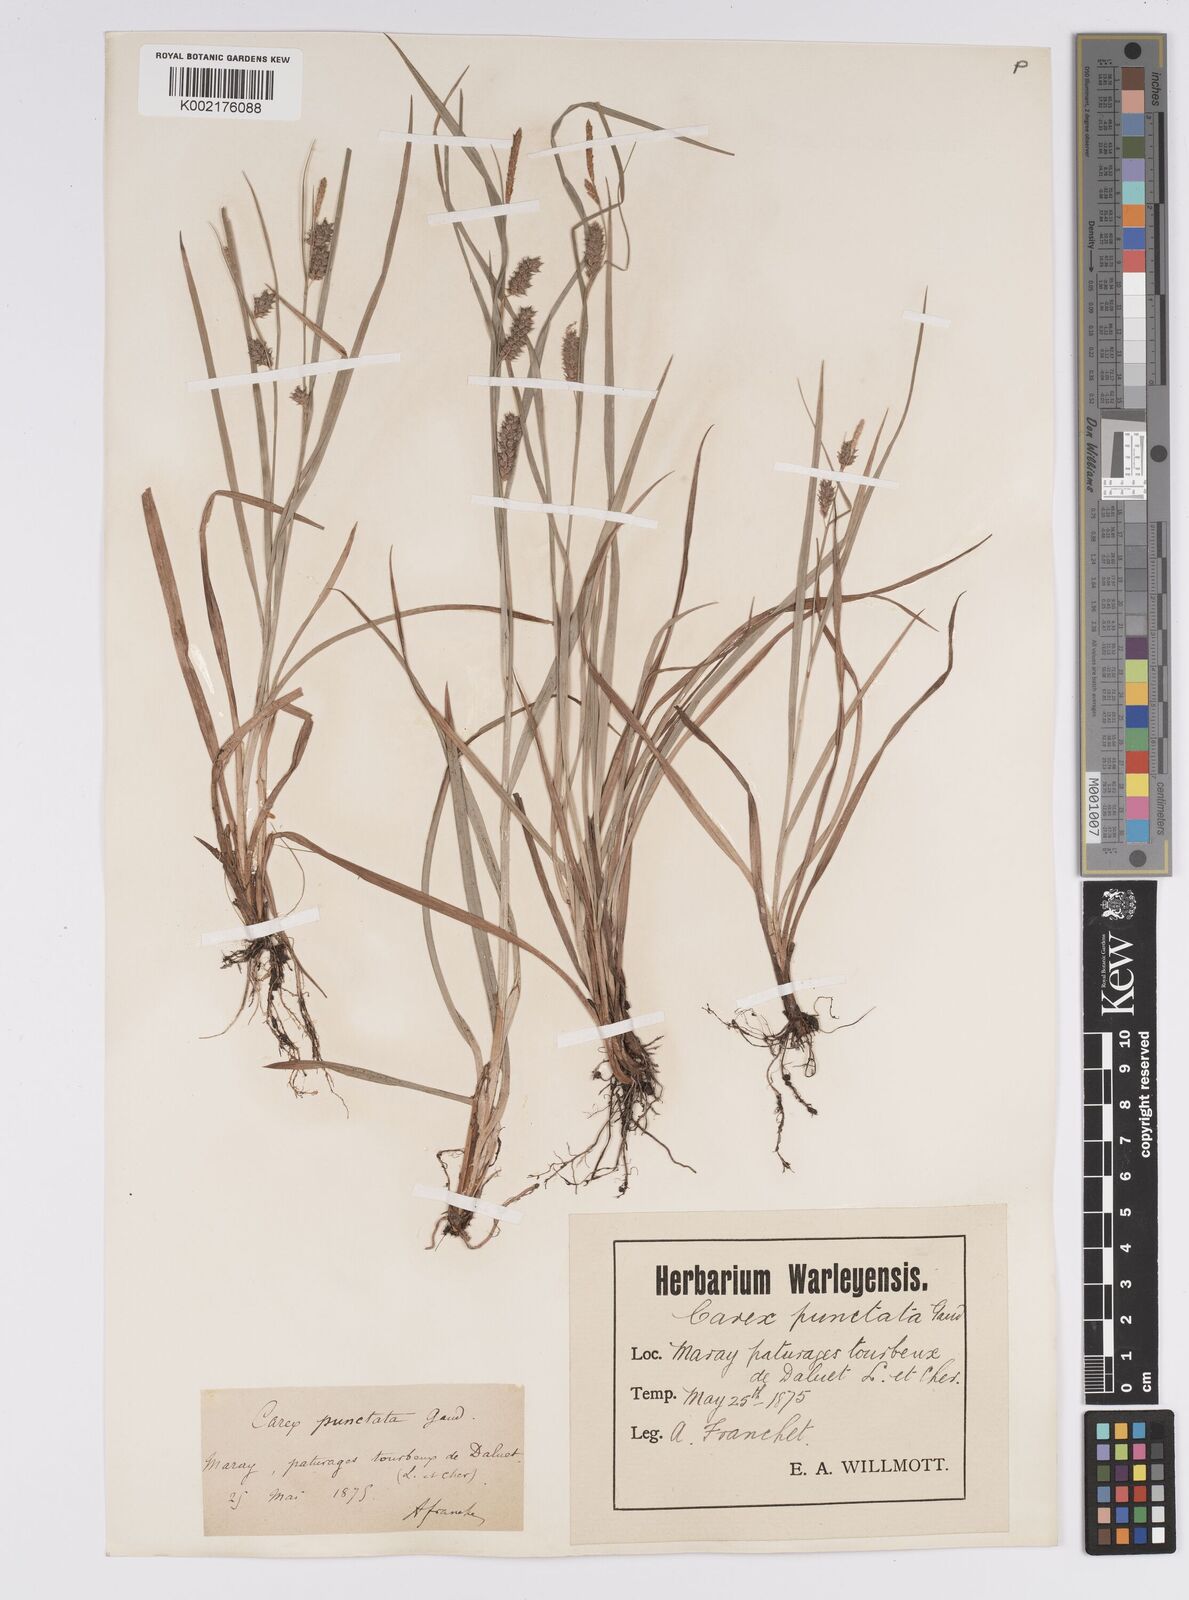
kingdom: Plantae
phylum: Tracheophyta
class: Liliopsida
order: Poales
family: Cyperaceae
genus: Carex
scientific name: Carex punctata
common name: Dotted sedge
